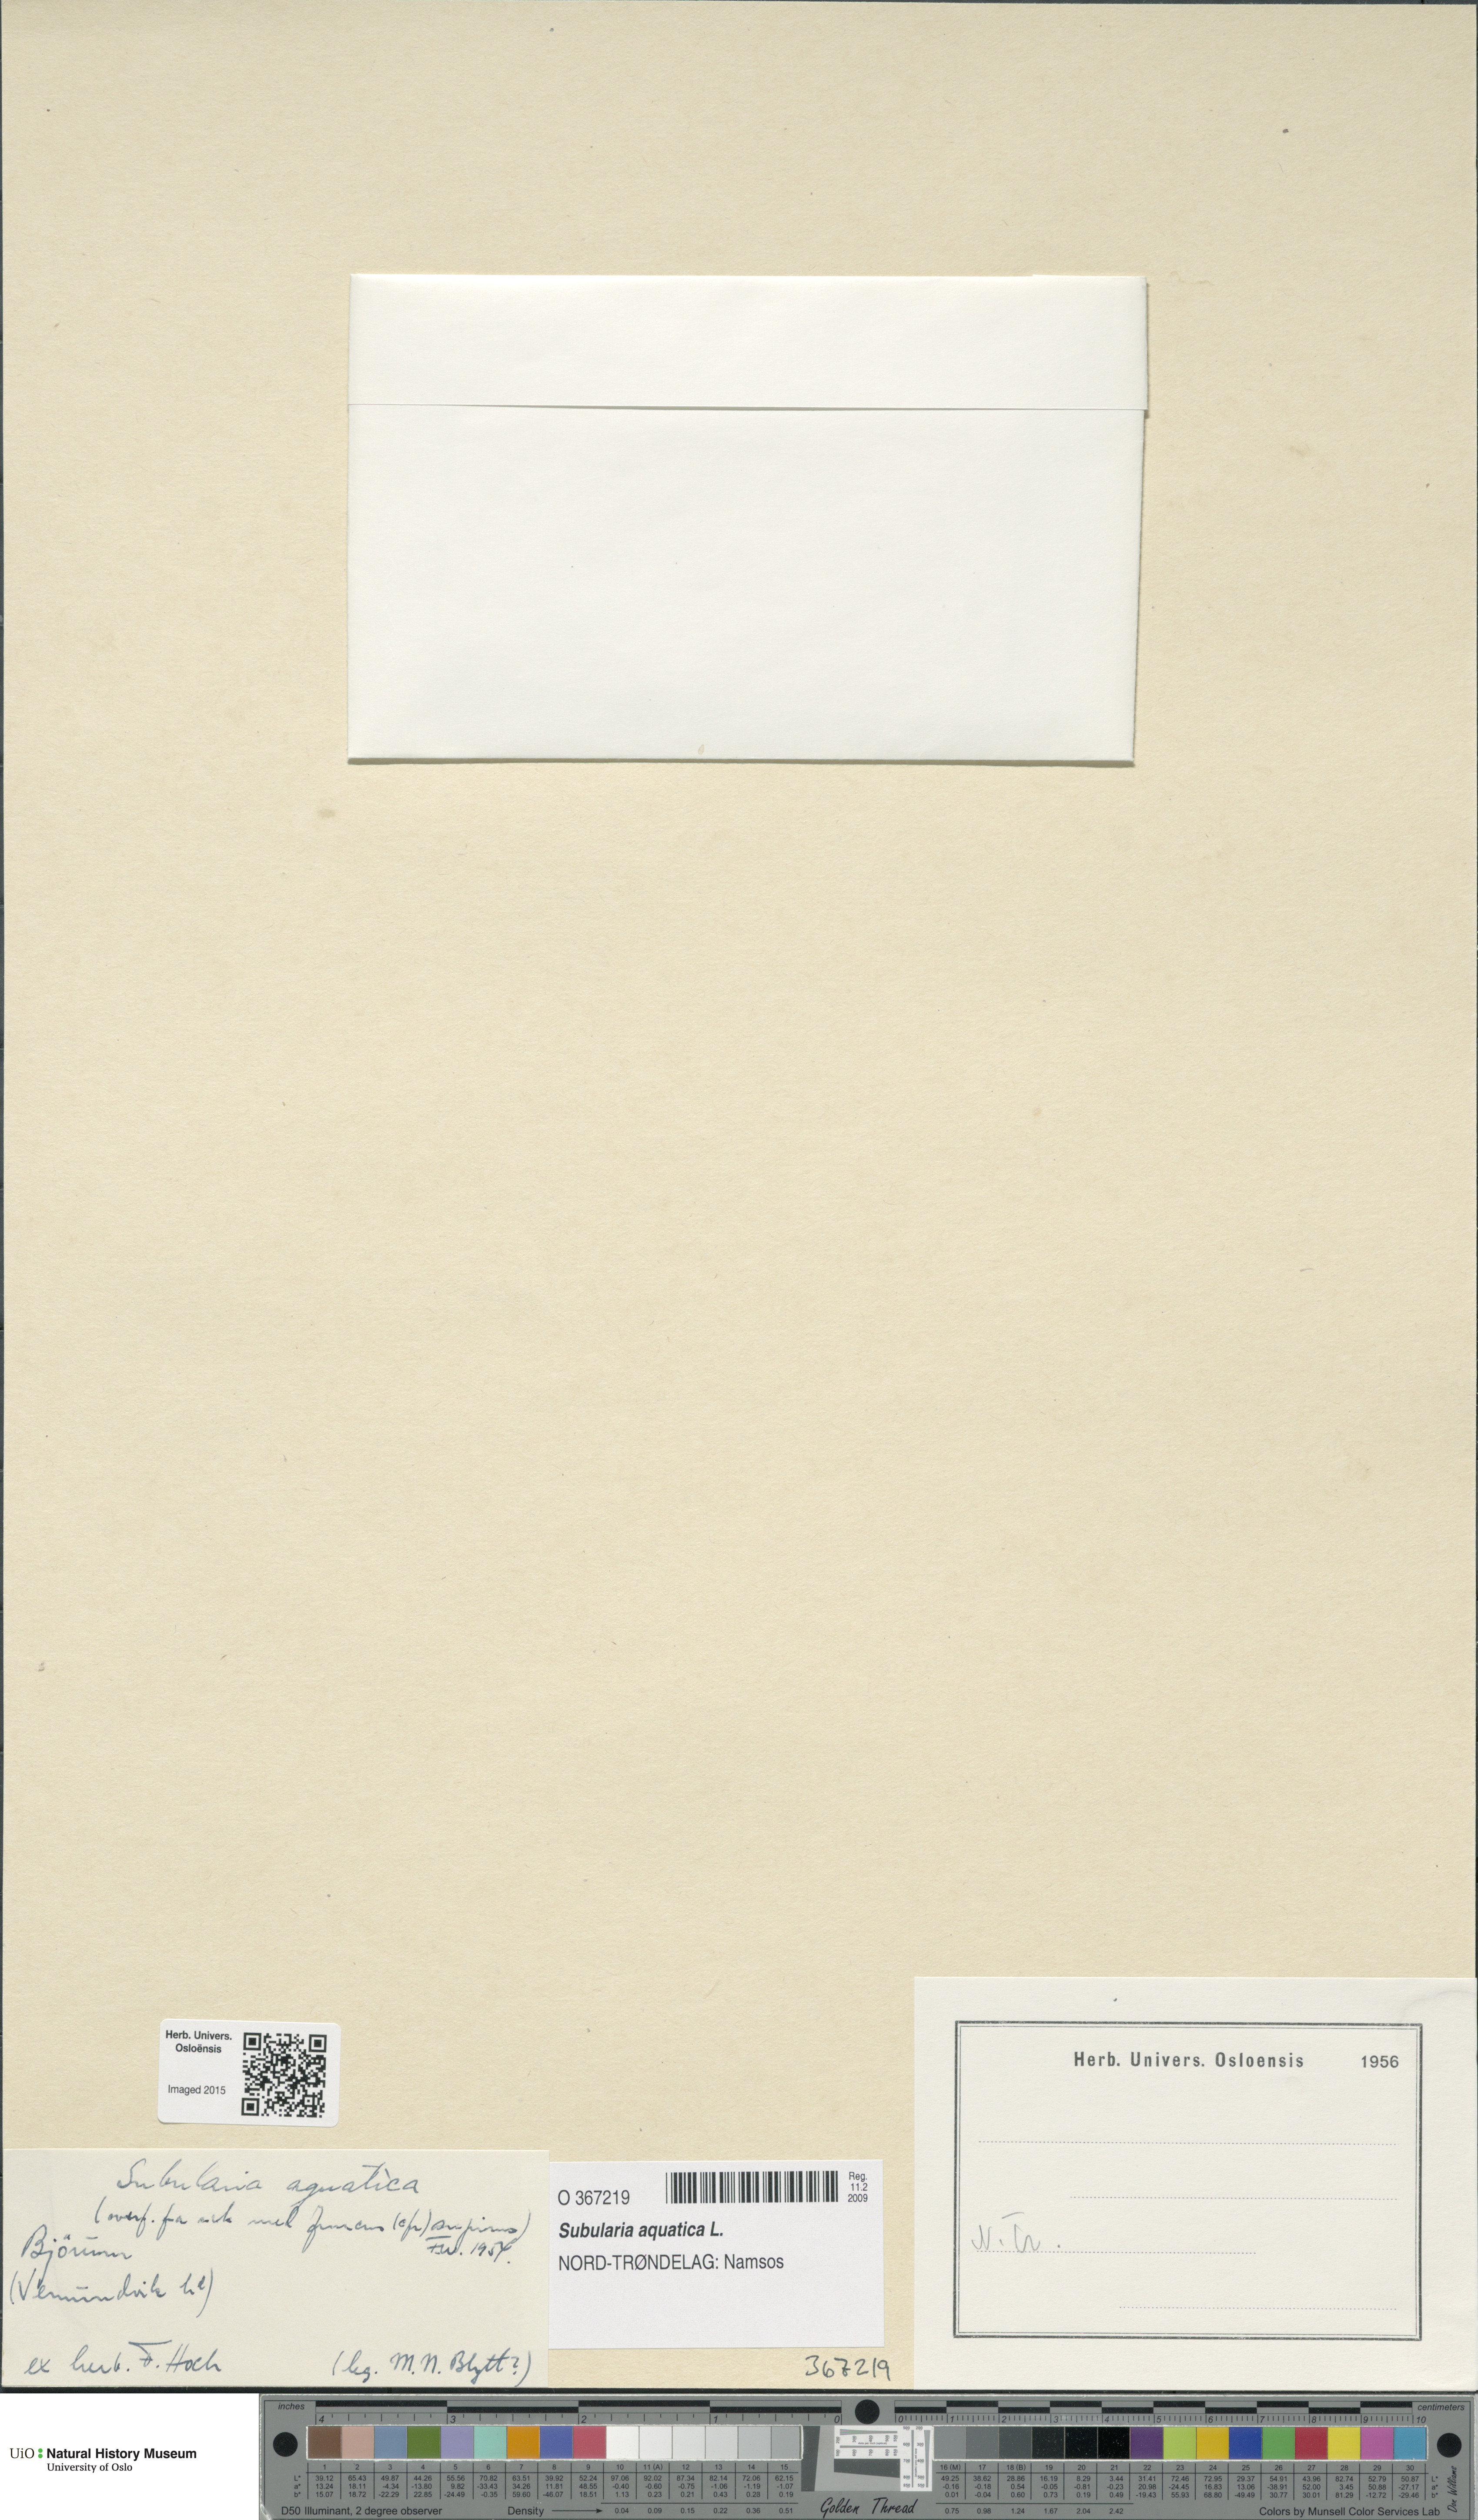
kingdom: Plantae
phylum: Tracheophyta
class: Magnoliopsida
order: Brassicales
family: Brassicaceae
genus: Subularia
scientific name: Subularia aquatica
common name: Awlwort
